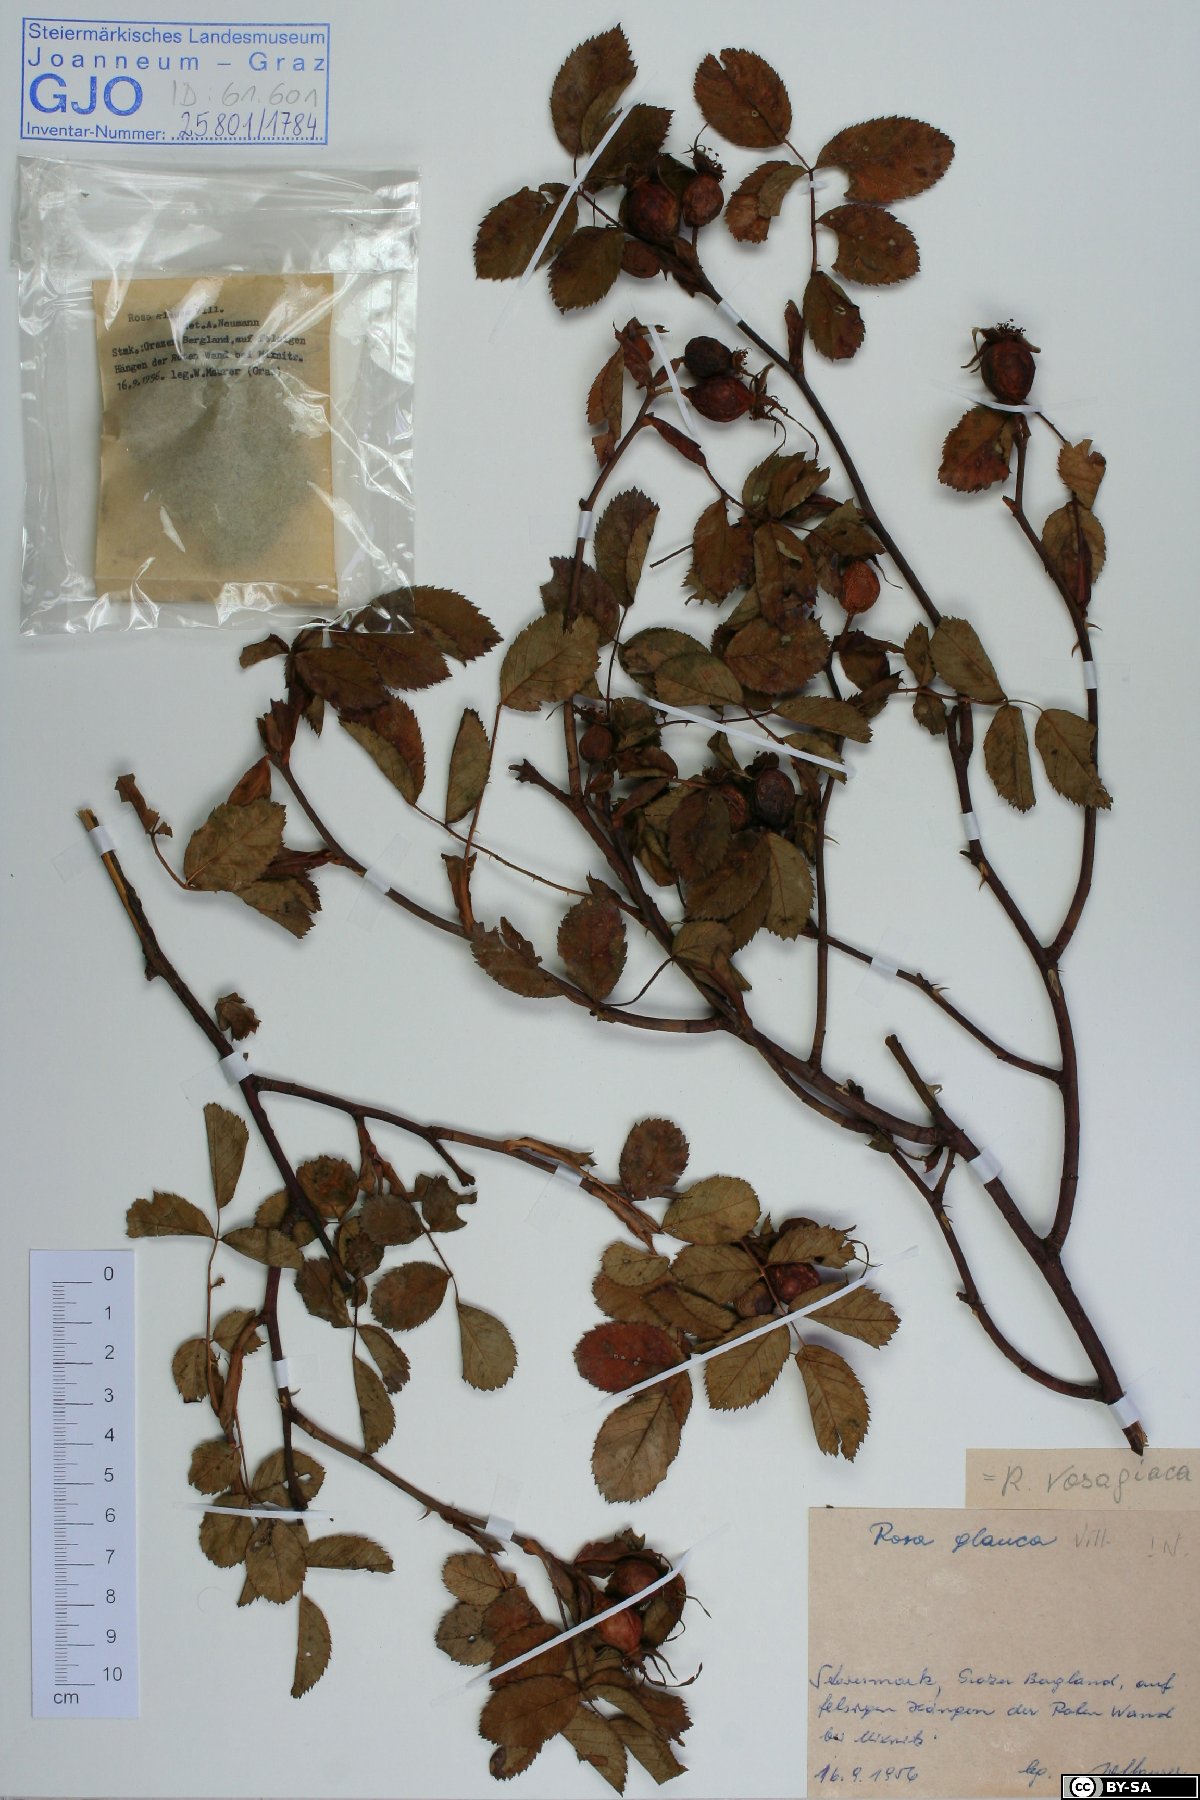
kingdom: Plantae
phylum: Tracheophyta
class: Magnoliopsida
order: Rosales
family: Rosaceae
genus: Rosa
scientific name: Rosa vosagiaca
